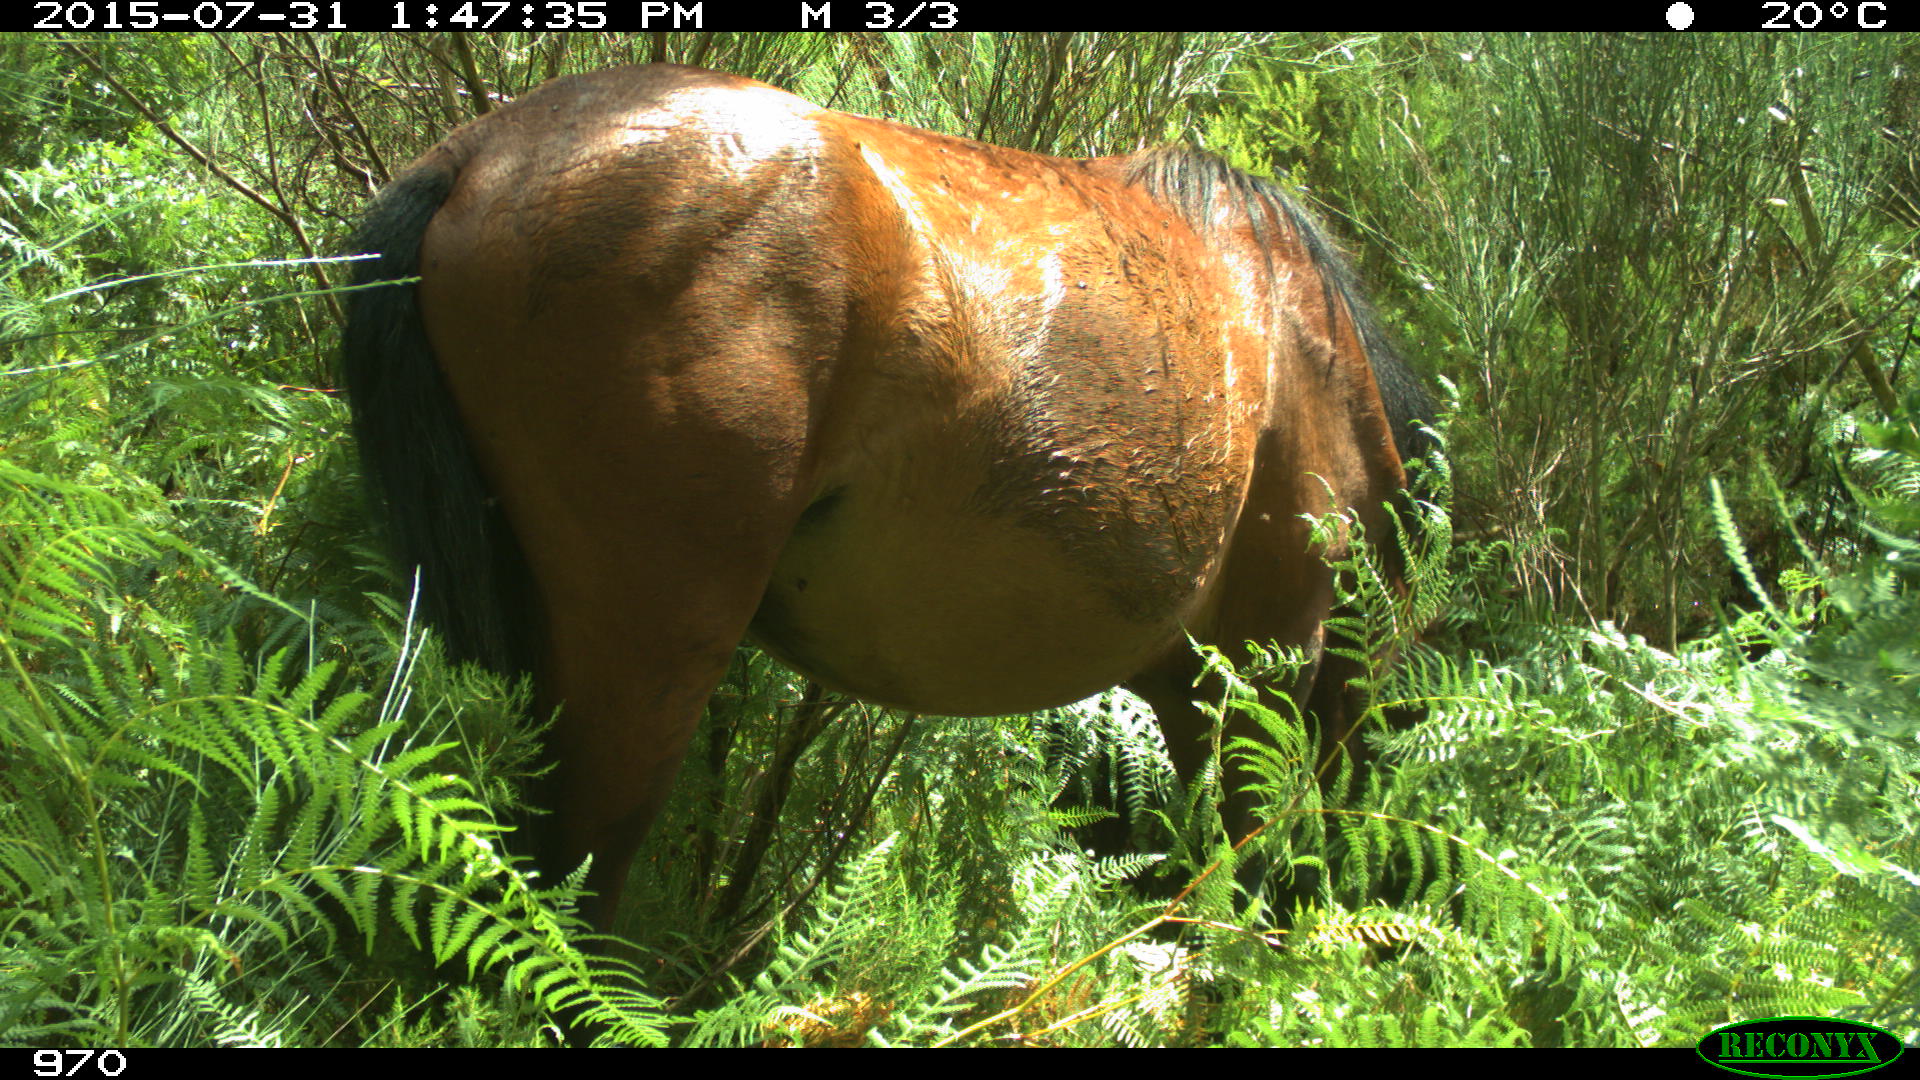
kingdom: Animalia
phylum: Chordata
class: Mammalia
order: Perissodactyla
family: Equidae
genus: Equus
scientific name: Equus caballus
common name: Horse
